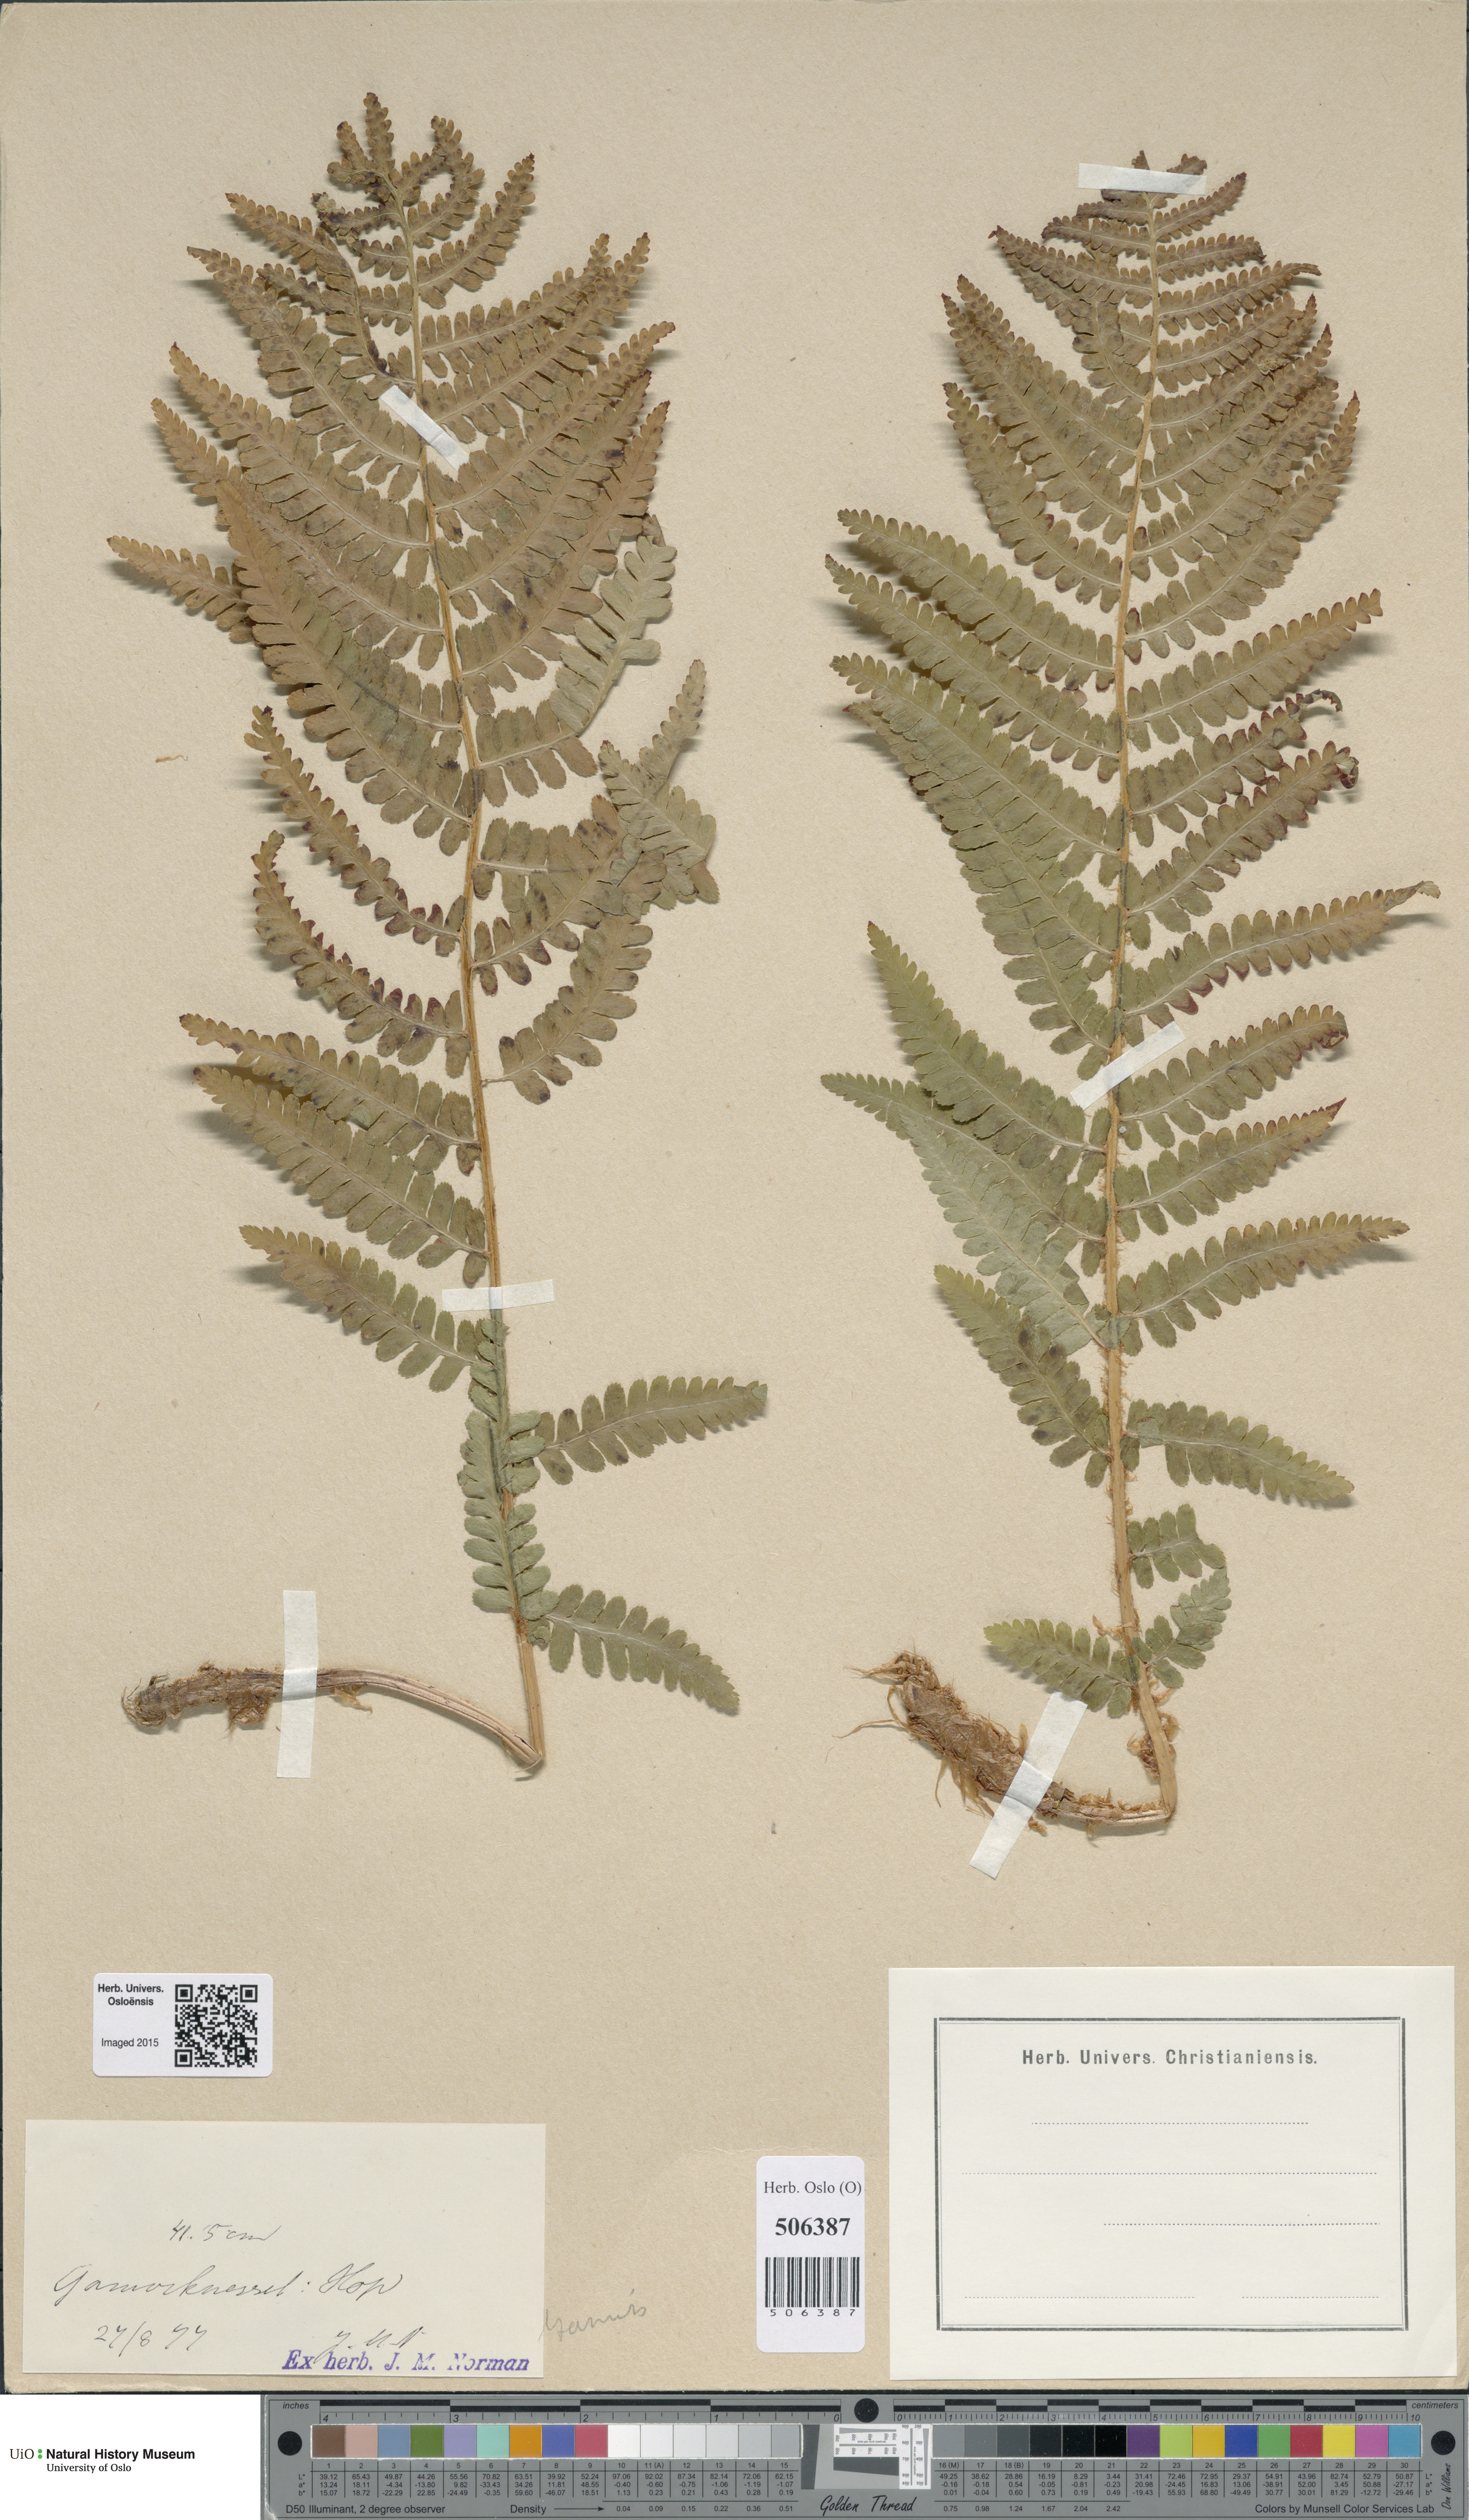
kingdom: Plantae
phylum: Tracheophyta
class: Polypodiopsida
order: Polypodiales
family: Dryopteridaceae
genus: Dryopteris
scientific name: Dryopteris filix-mas
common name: Male fern
